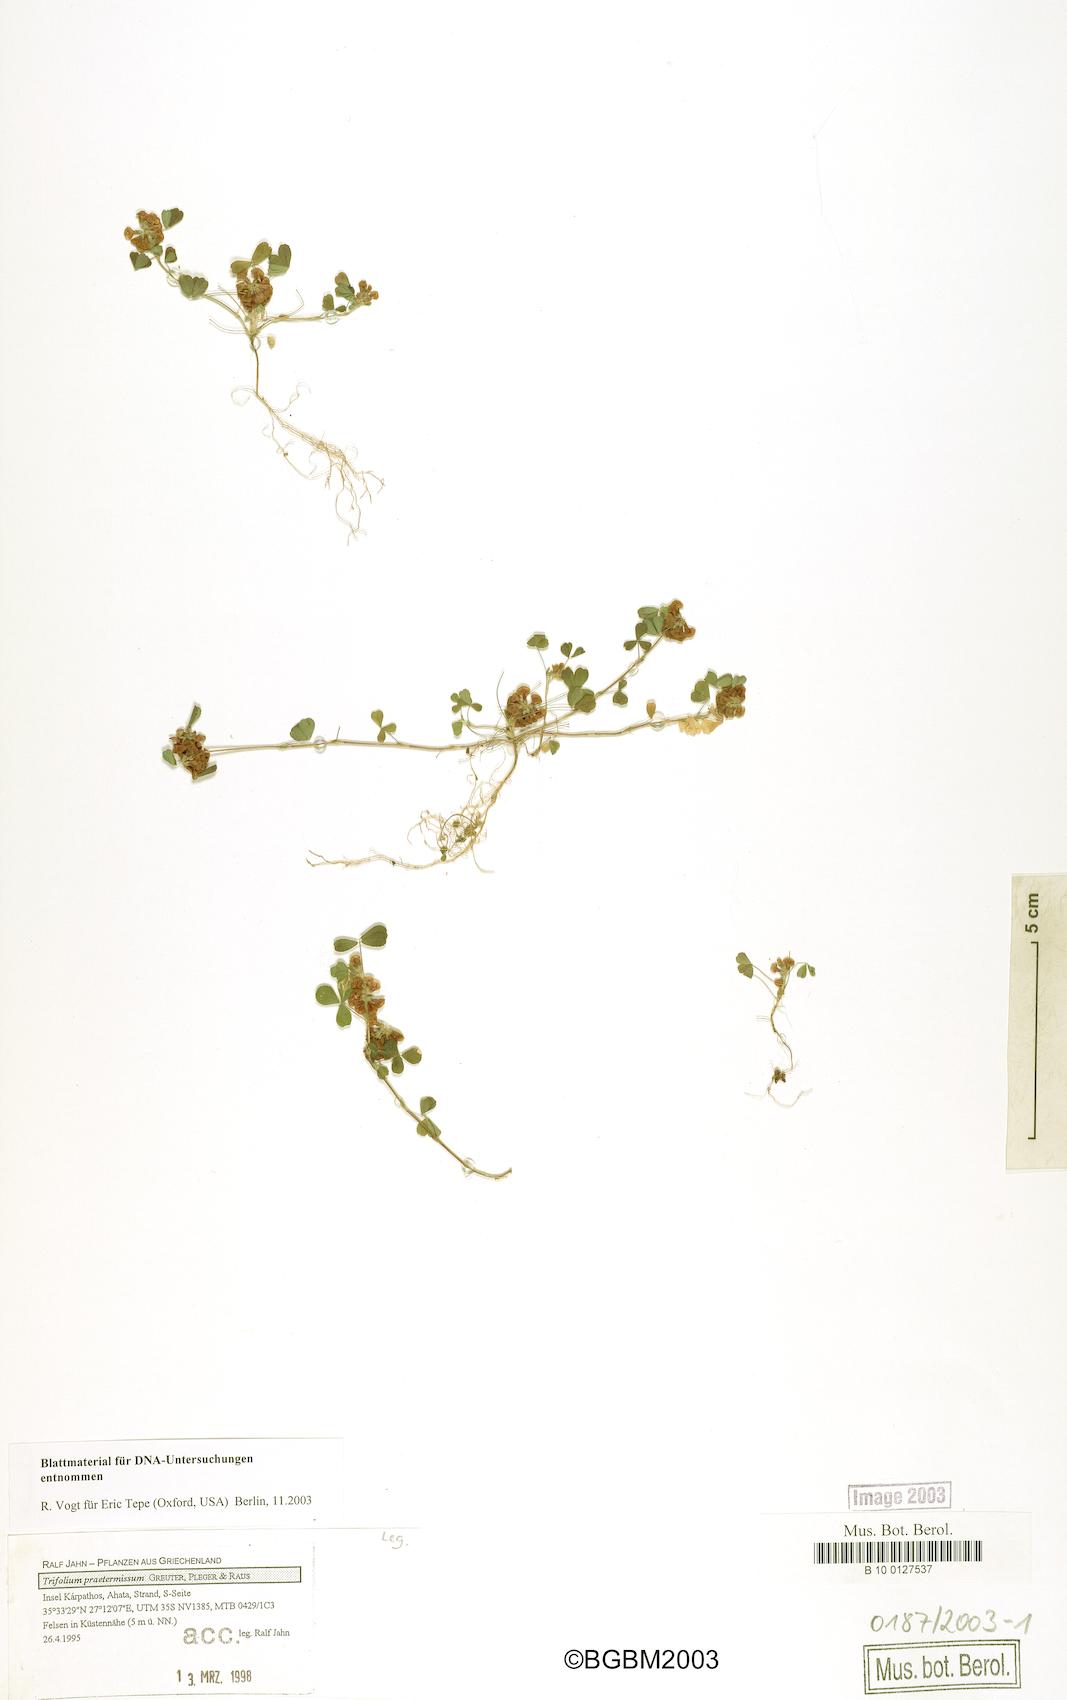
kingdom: Plantae
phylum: Tracheophyta
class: Magnoliopsida
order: Fabales
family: Fabaceae
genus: Trifolium
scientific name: Trifolium praetermissum
